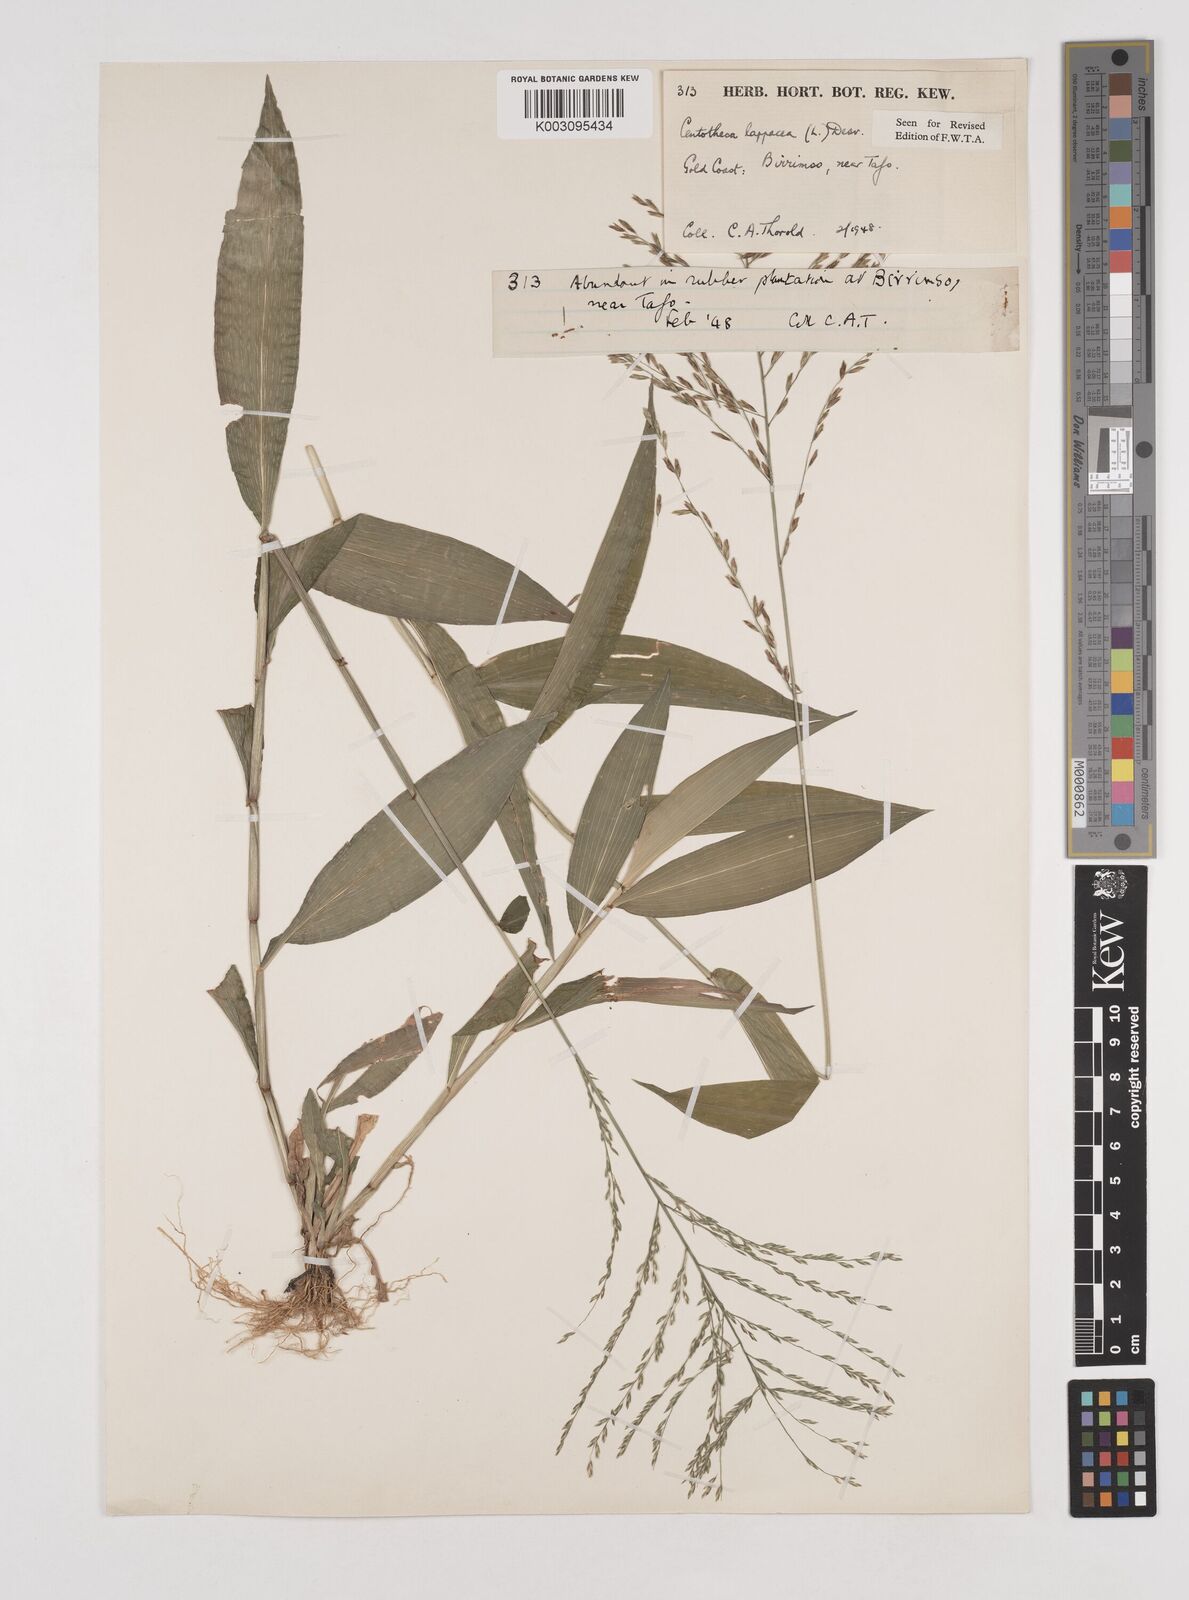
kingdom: Plantae
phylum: Tracheophyta
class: Liliopsida
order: Poales
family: Poaceae
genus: Centotheca
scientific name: Centotheca lappacea
